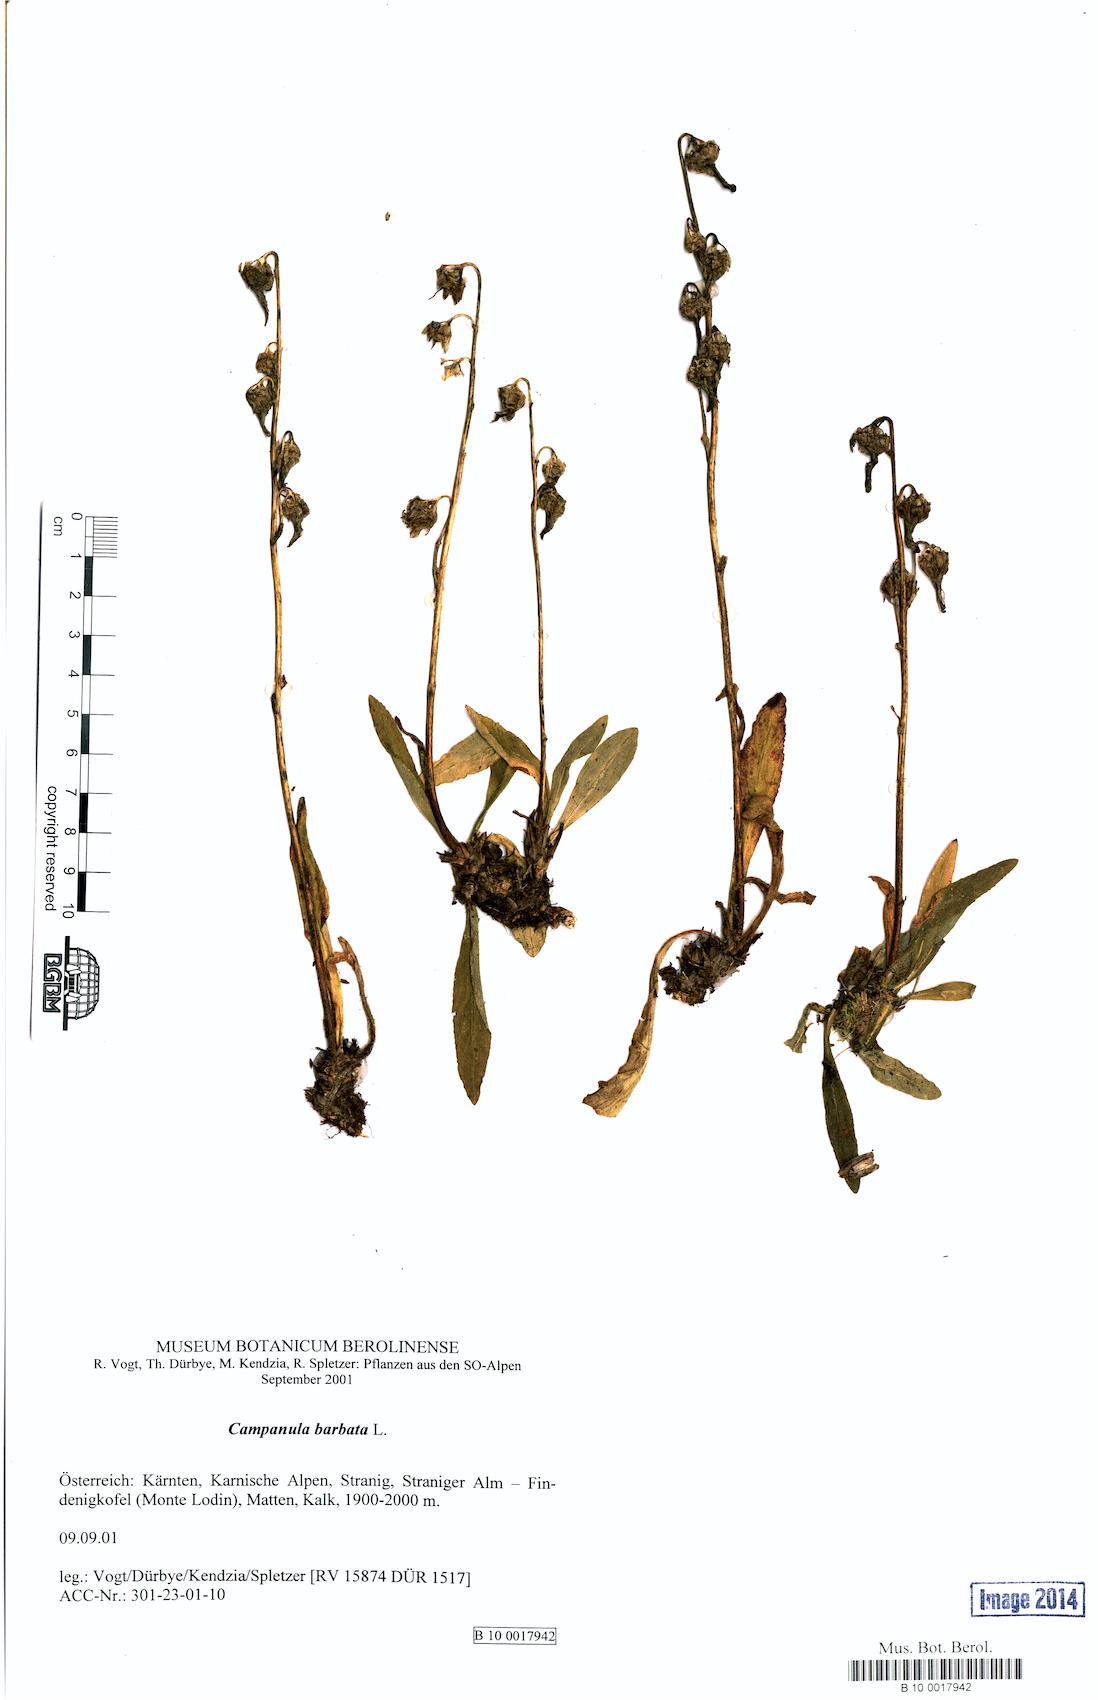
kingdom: Plantae
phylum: Tracheophyta
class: Magnoliopsida
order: Asterales
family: Campanulaceae
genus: Campanula
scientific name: Campanula barbata
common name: Bearded bellflower
